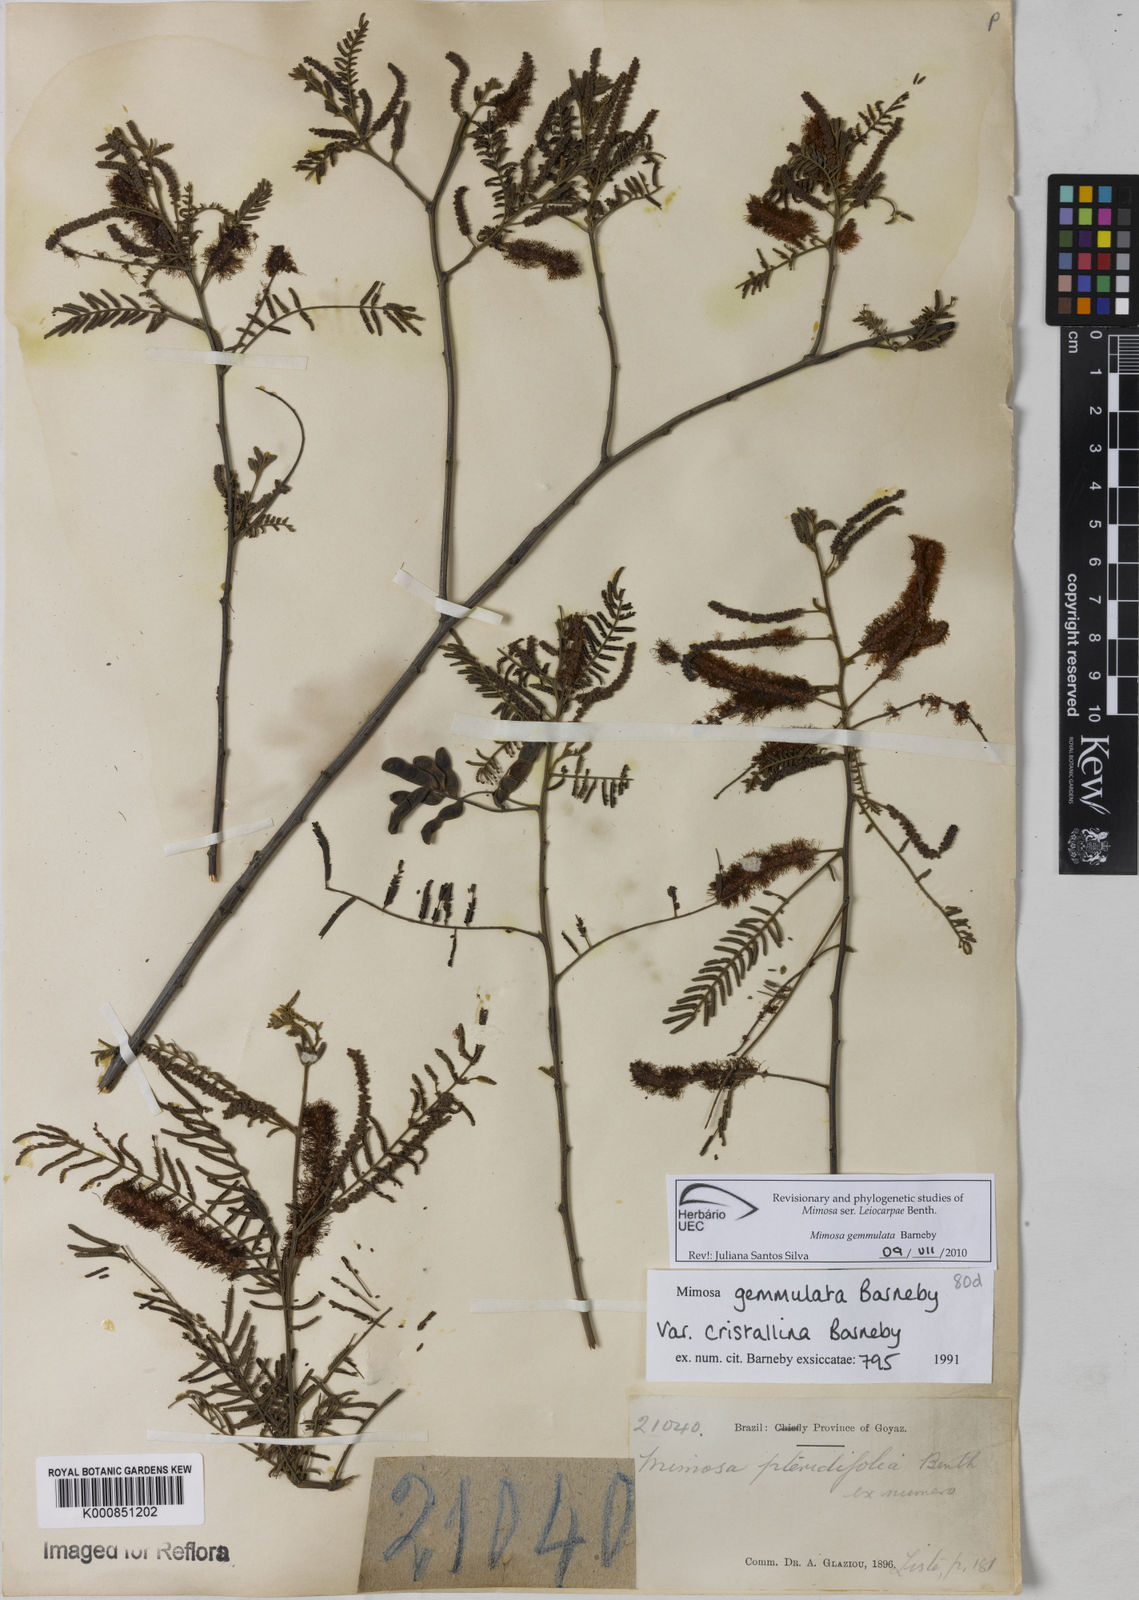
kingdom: Plantae
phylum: Tracheophyta
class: Magnoliopsida
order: Fabales
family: Fabaceae
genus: Mimosa
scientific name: Mimosa gemmulata
